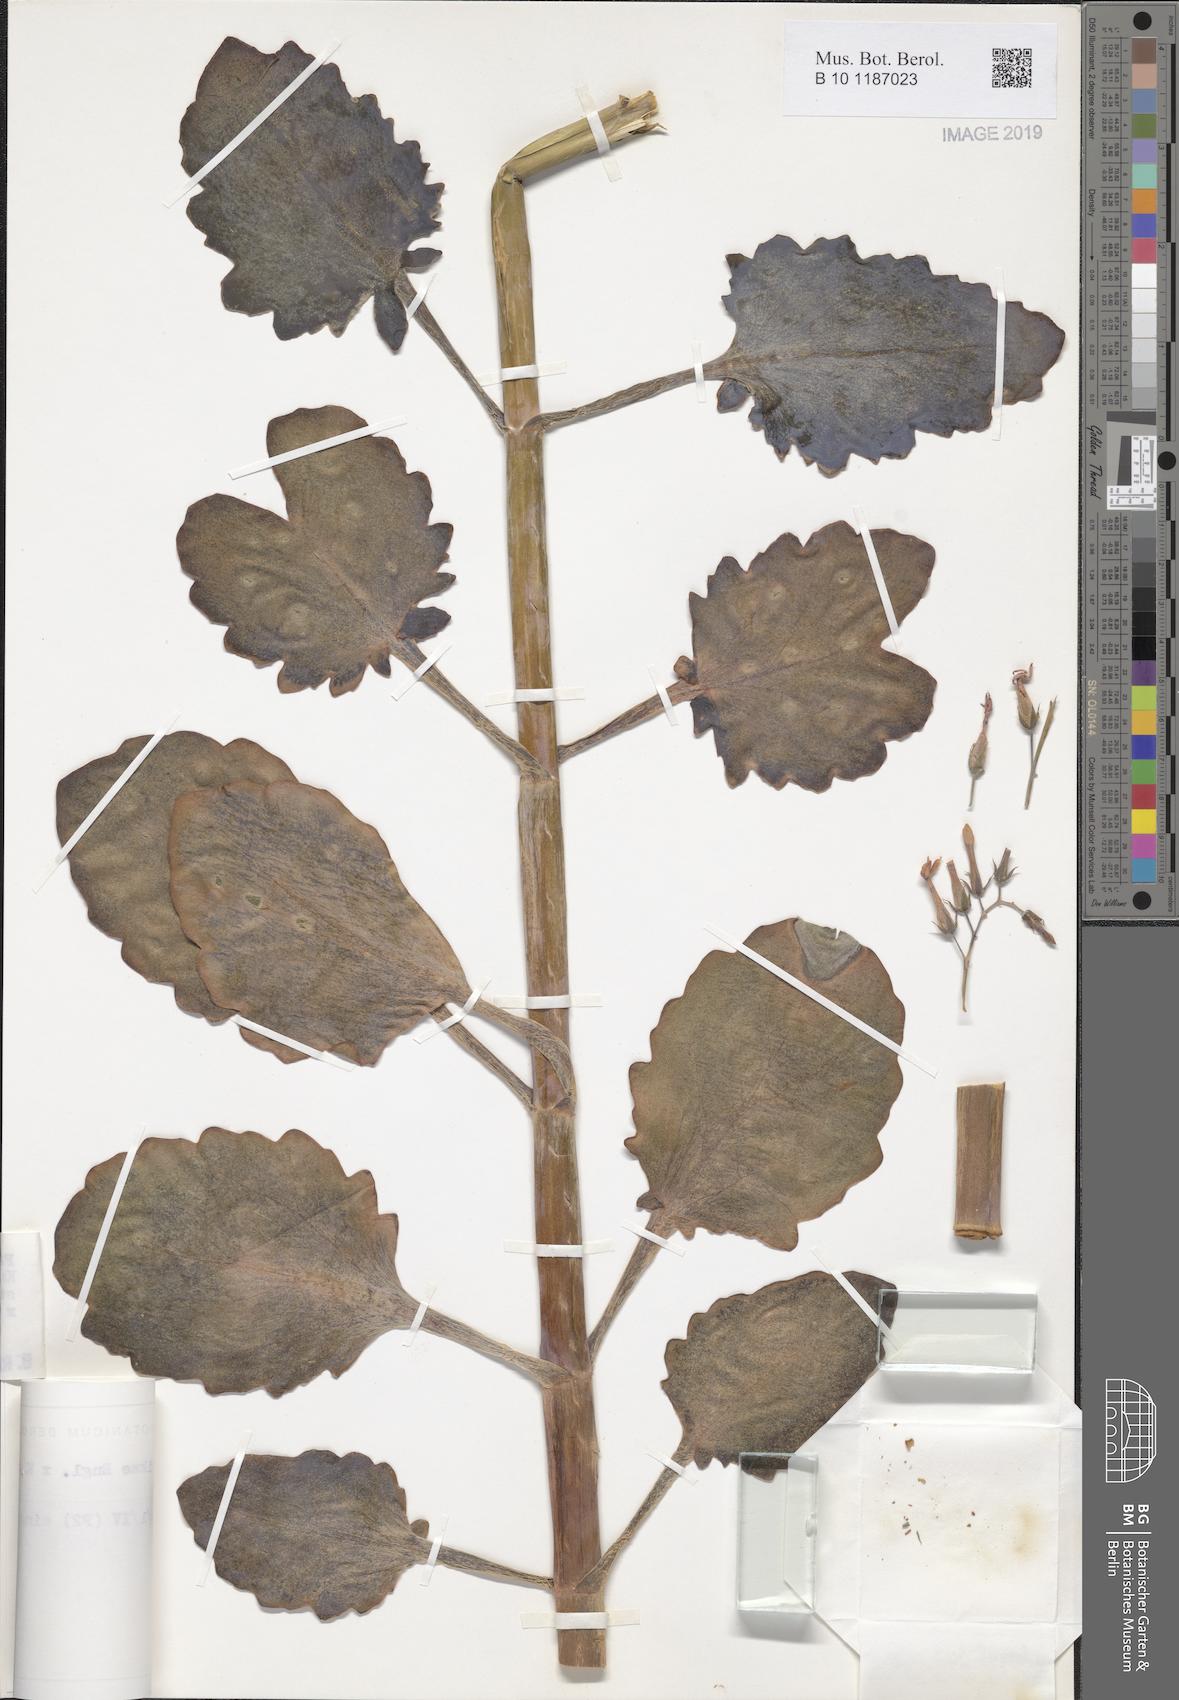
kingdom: Plantae
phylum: Tracheophyta
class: Magnoliopsida
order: Saxifragales
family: Crassulaceae
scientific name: Crassulaceae
